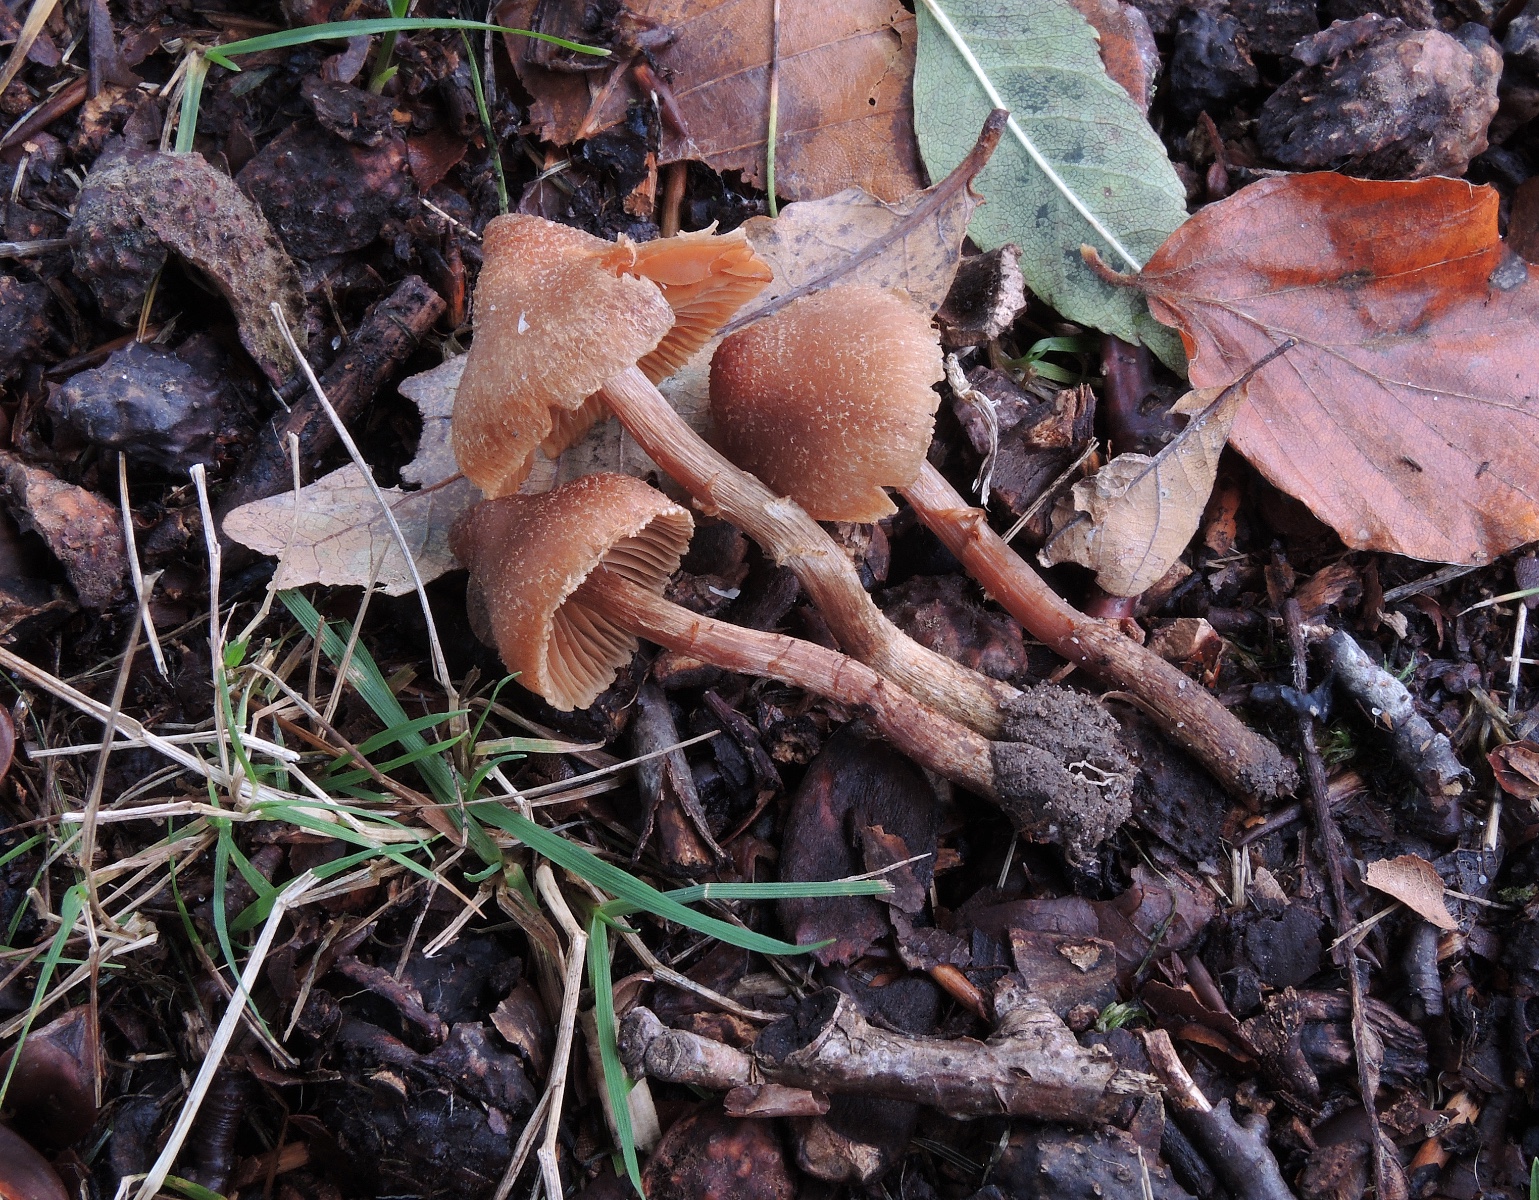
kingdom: Fungi
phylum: Basidiomycota
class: Agaricomycetes
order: Agaricales
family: Cortinariaceae
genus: Cortinarius
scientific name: Cortinarius quercoconicus
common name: agernskål-slørhat
